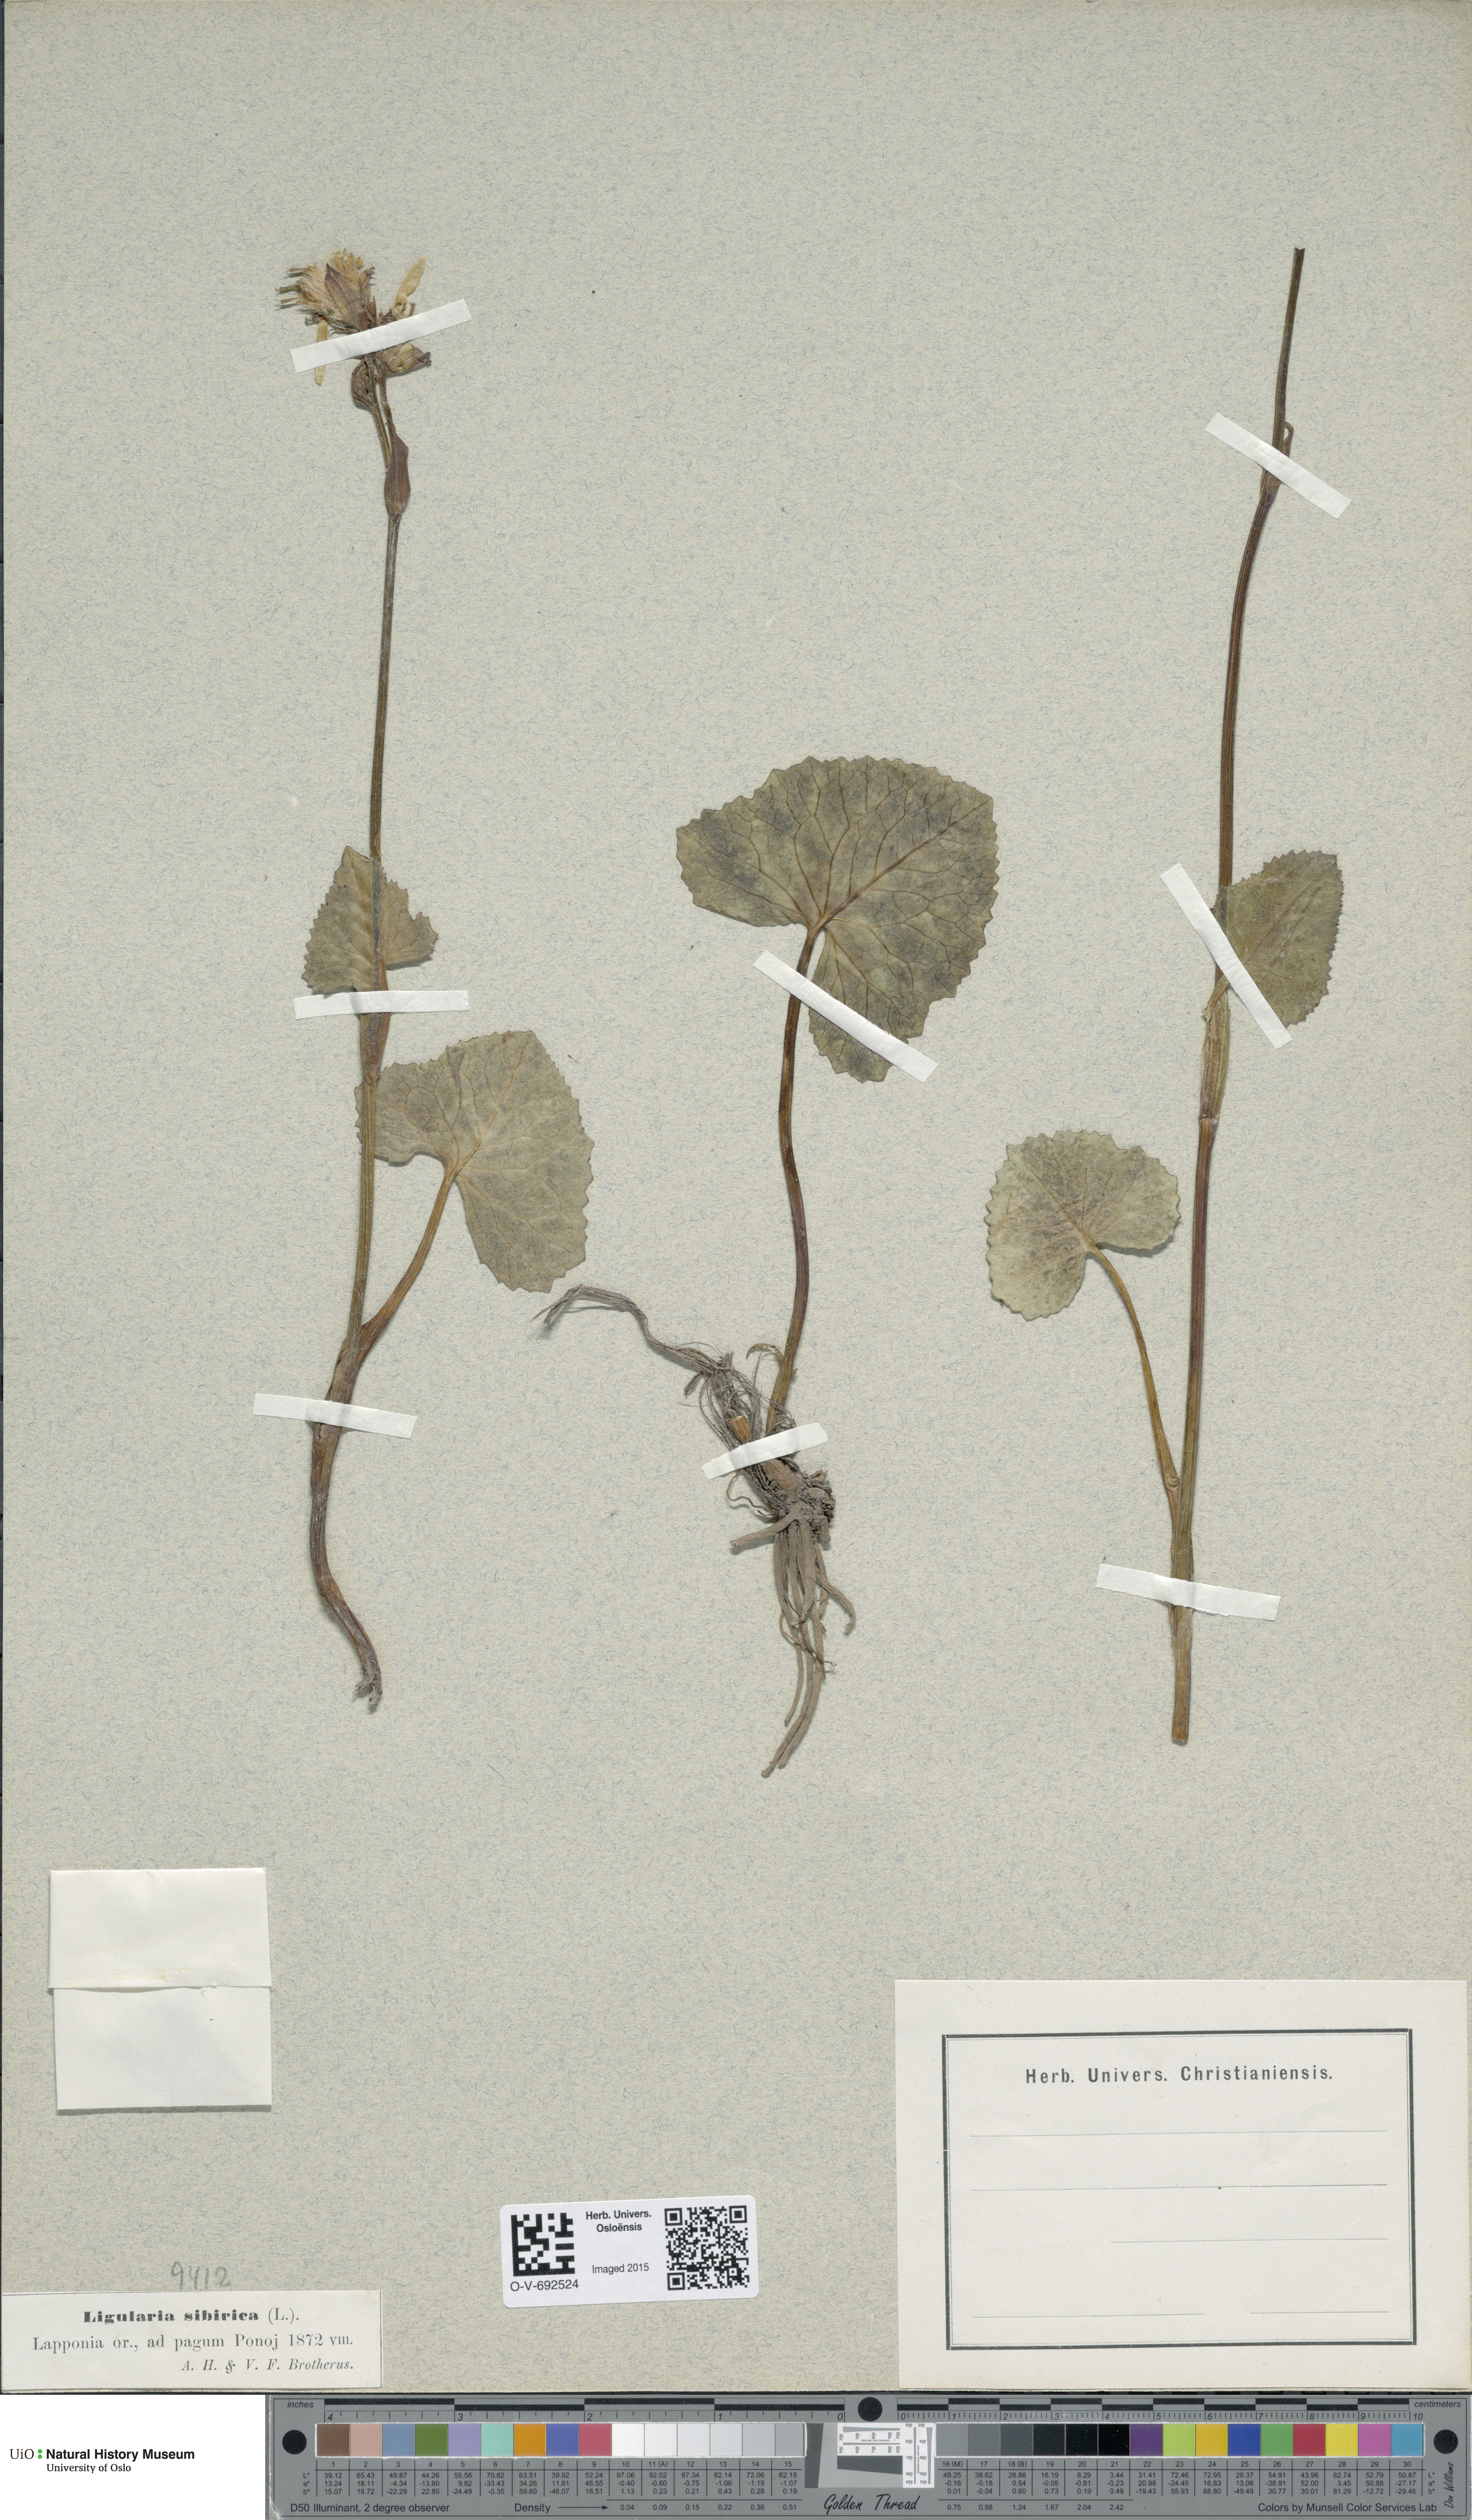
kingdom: Plantae
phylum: Tracheophyta
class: Magnoliopsida
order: Asterales
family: Asteraceae
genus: Ligularia
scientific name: Ligularia sibirica
